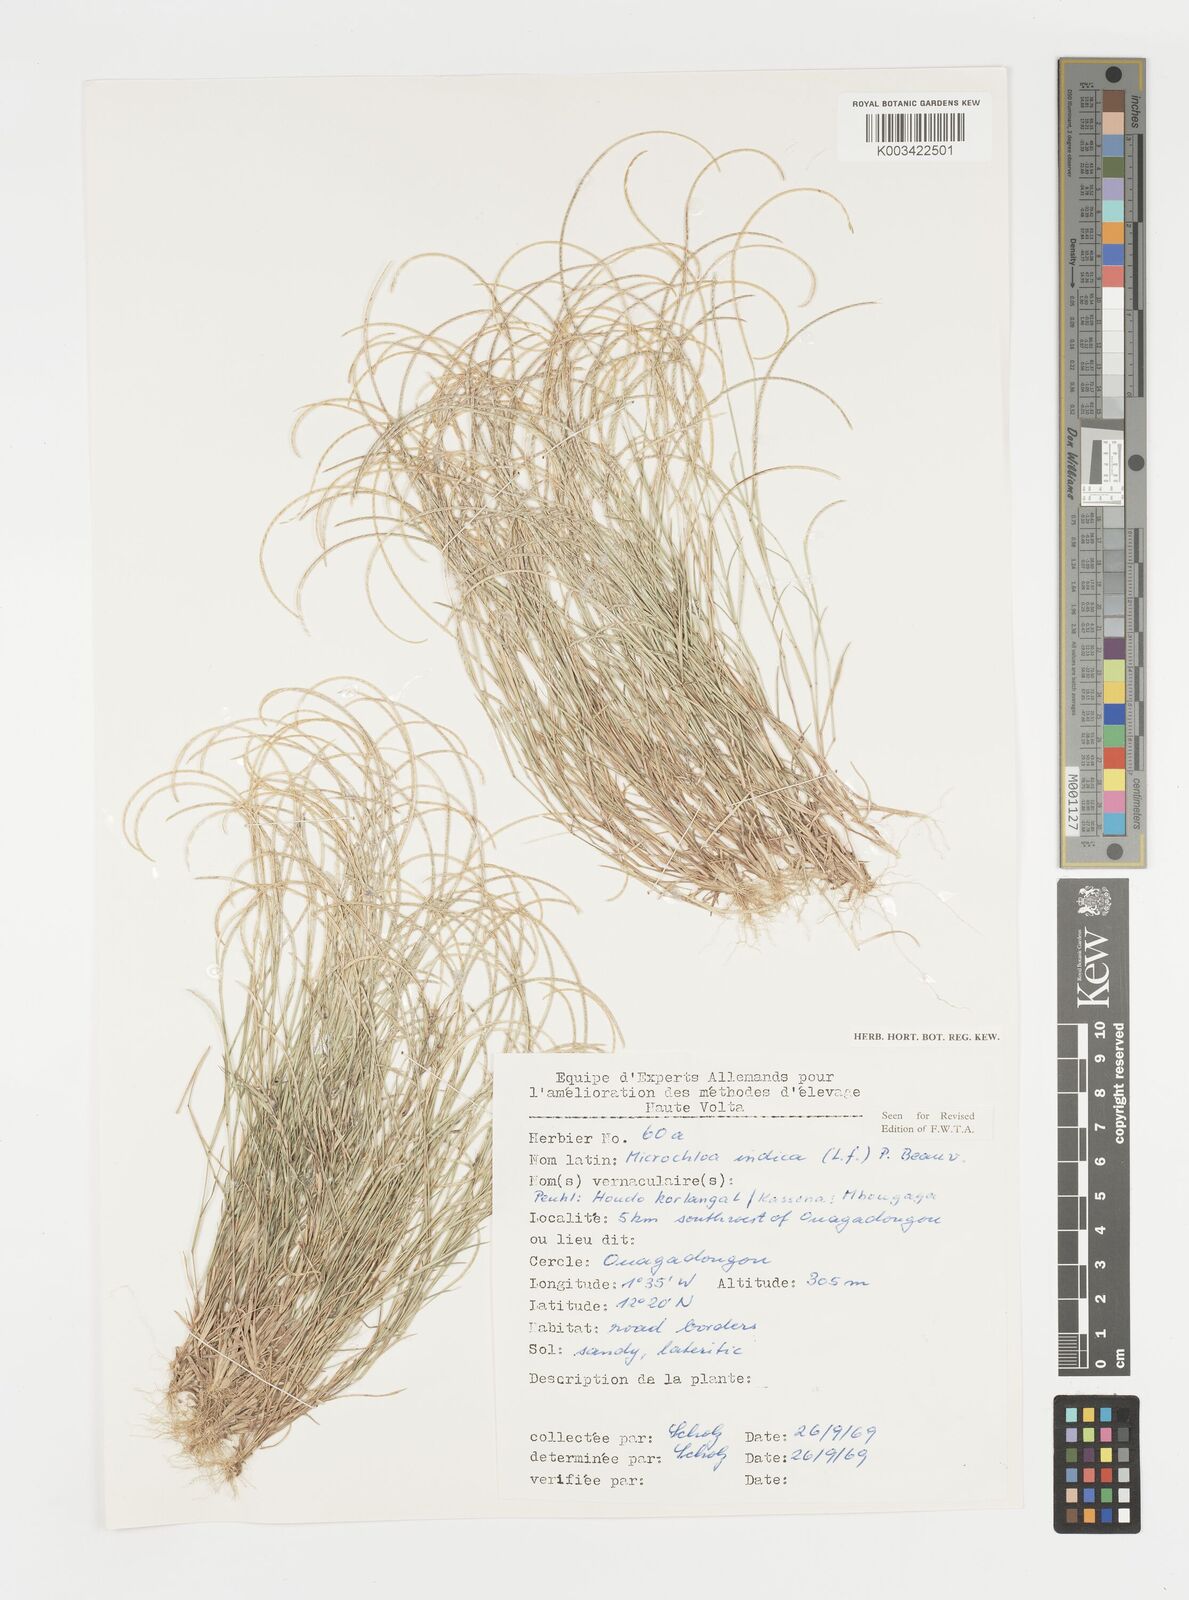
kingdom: Plantae
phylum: Tracheophyta
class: Liliopsida
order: Poales
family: Poaceae
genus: Microchloa
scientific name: Microchloa indica
